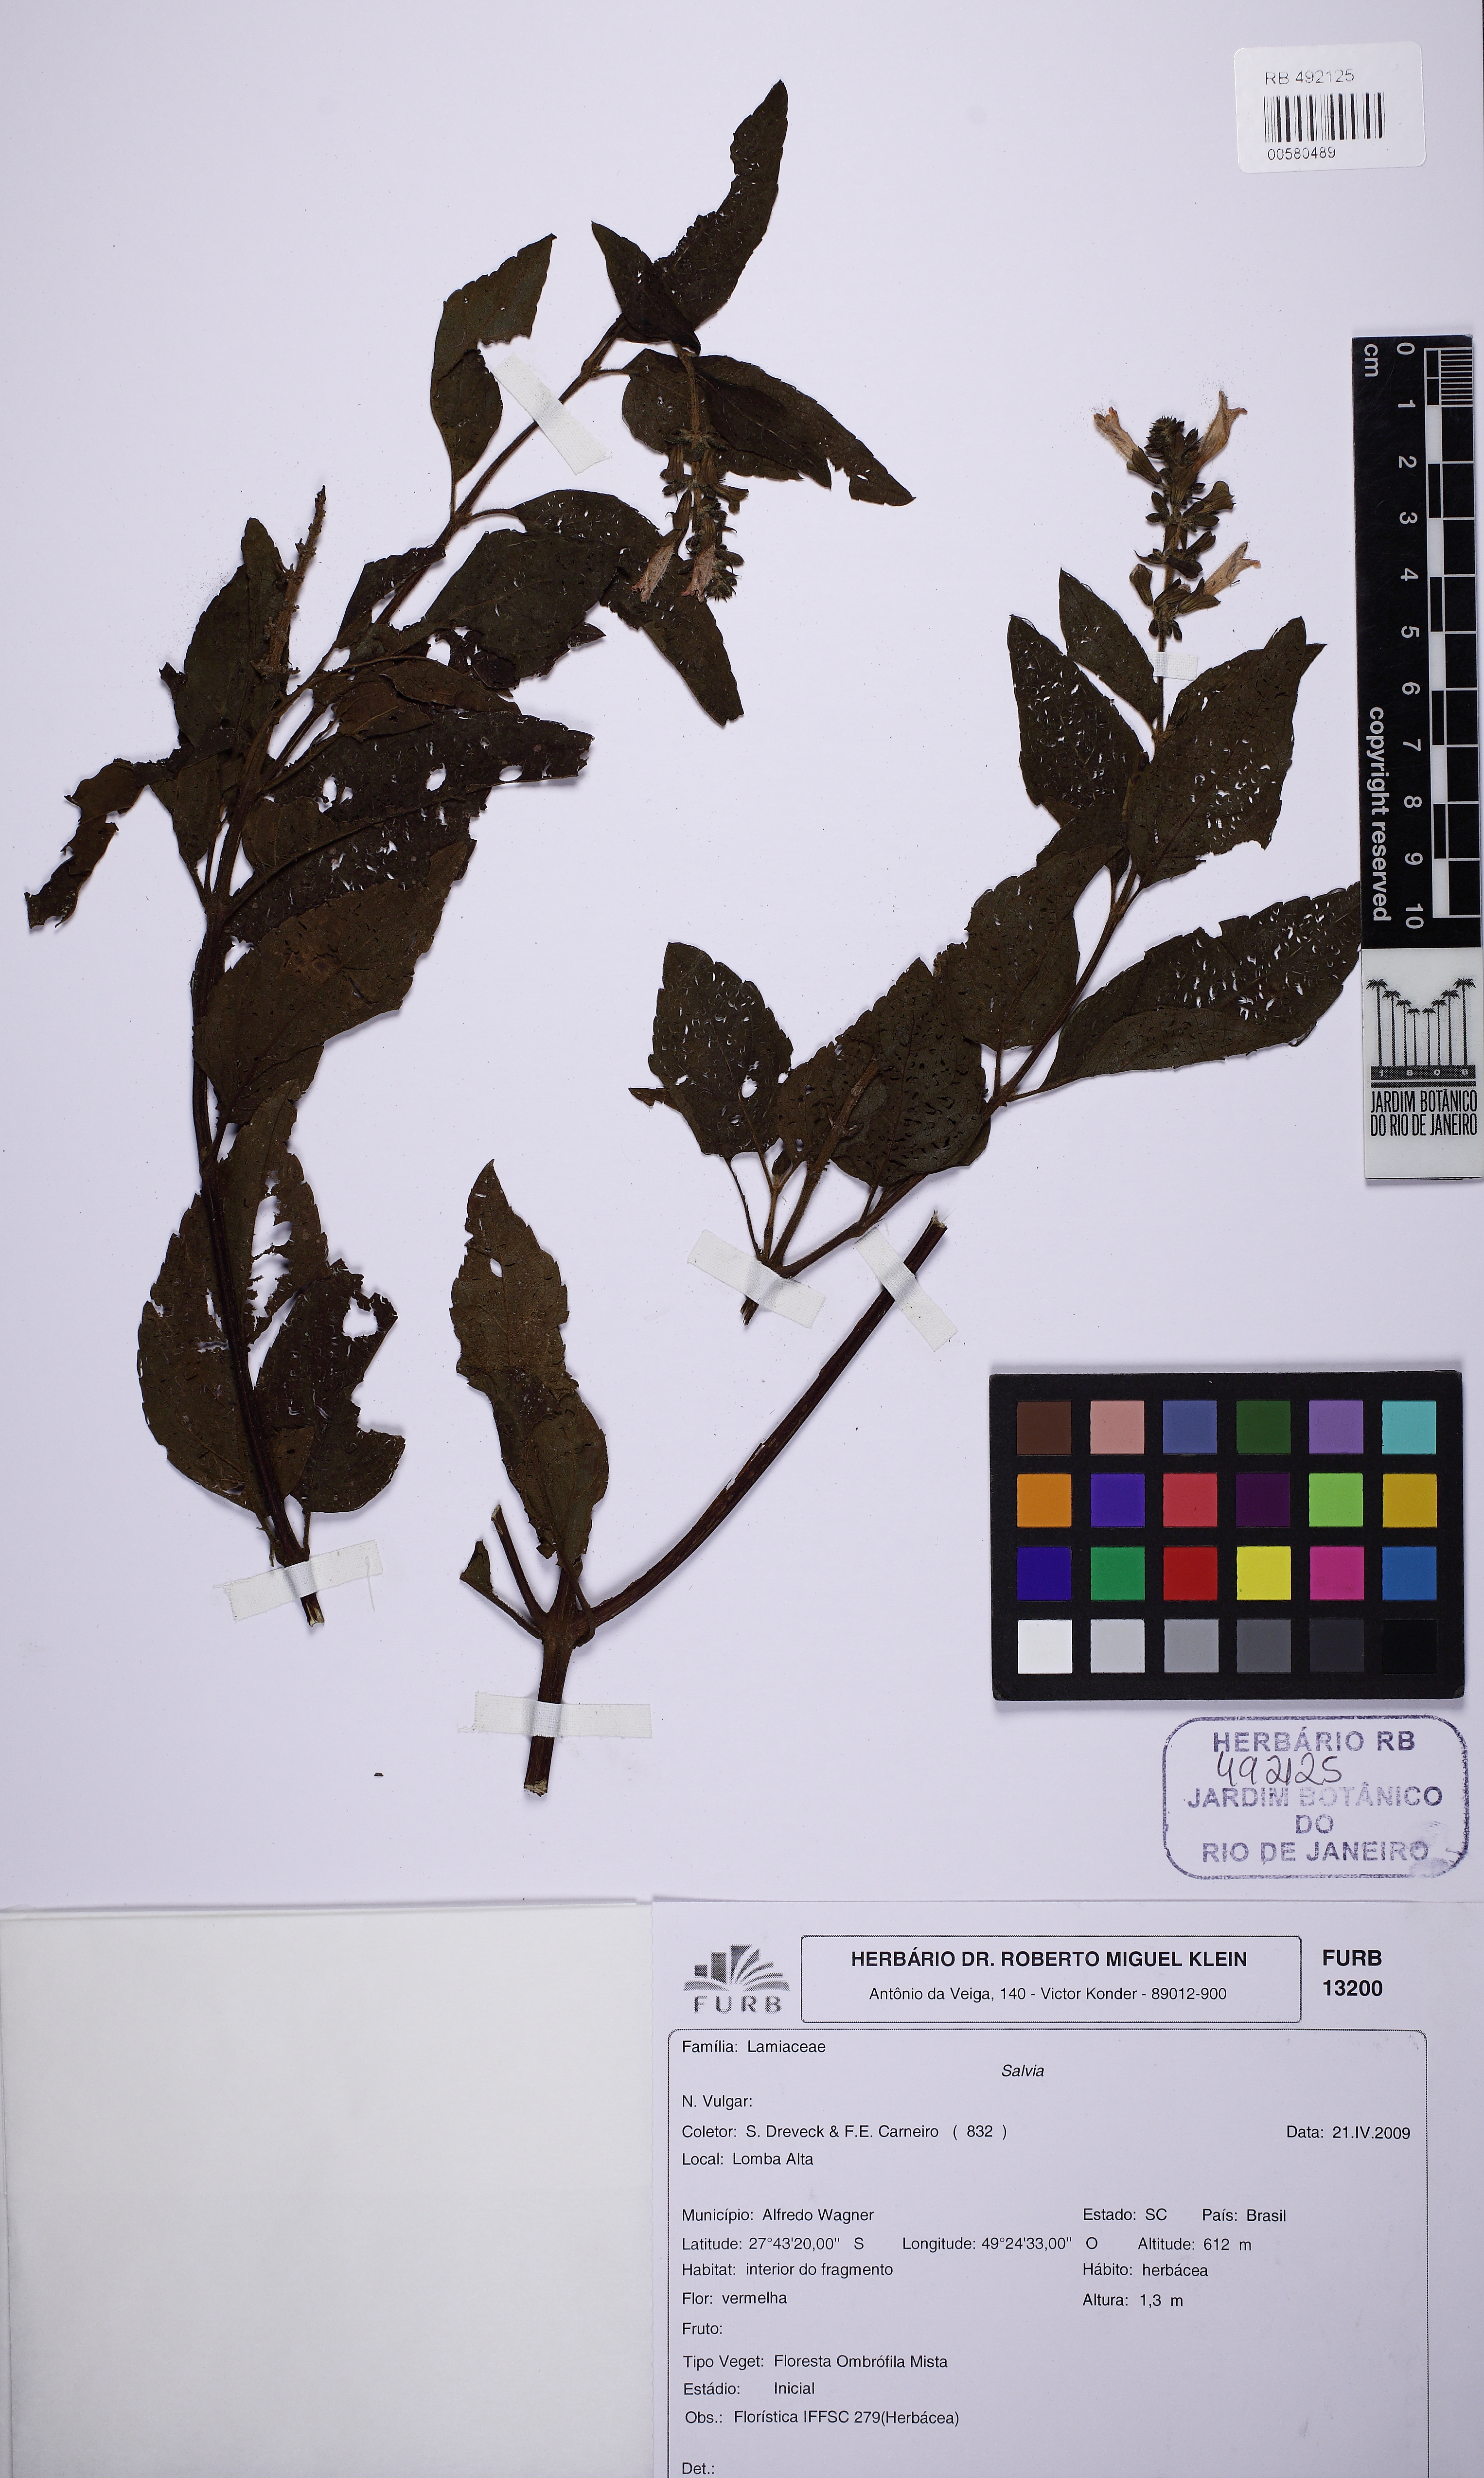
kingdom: Plantae
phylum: Tracheophyta
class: Magnoliopsida
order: Lamiales
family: Lamiaceae
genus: Salvia
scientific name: Salvia melissiflora
